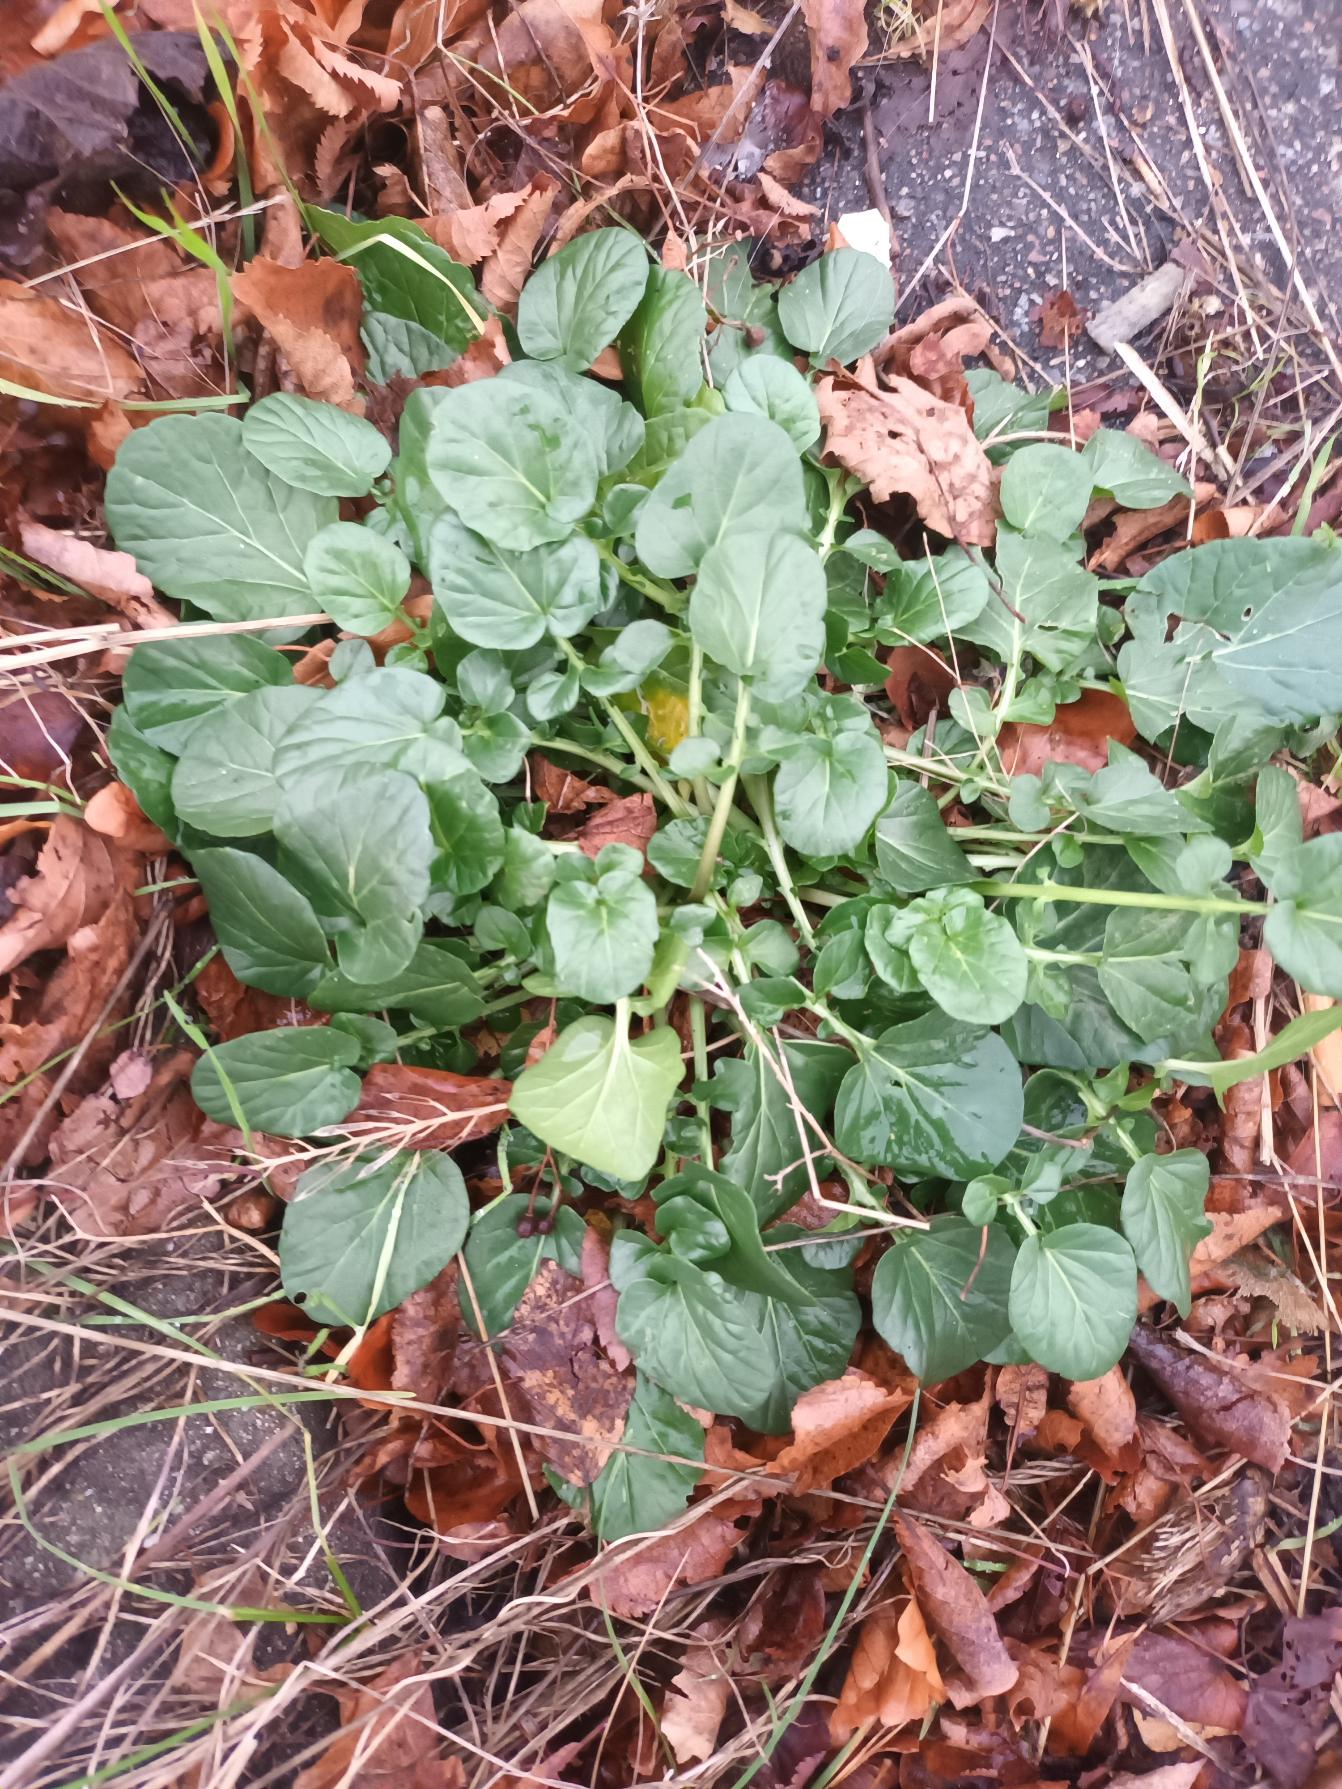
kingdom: Plantae
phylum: Tracheophyta
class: Magnoliopsida
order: Brassicales
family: Brassicaceae
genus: Barbarea
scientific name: Barbarea vulgaris
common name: Almindelig vinterkarse
